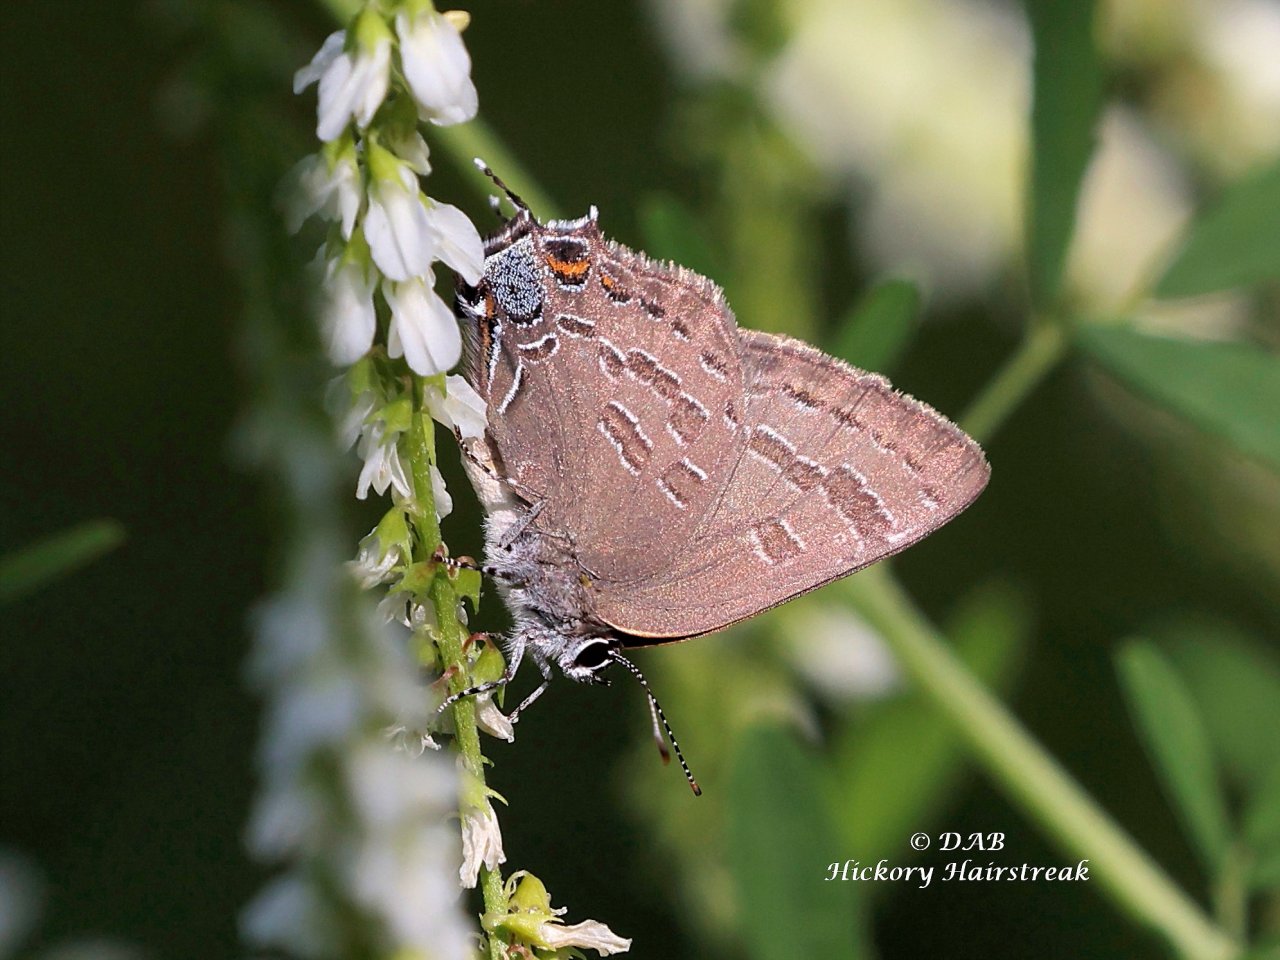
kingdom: Animalia
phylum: Arthropoda
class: Insecta
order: Lepidoptera
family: Lycaenidae
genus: Strymon
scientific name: Strymon caryaevorus
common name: Hickory Hairstreak
